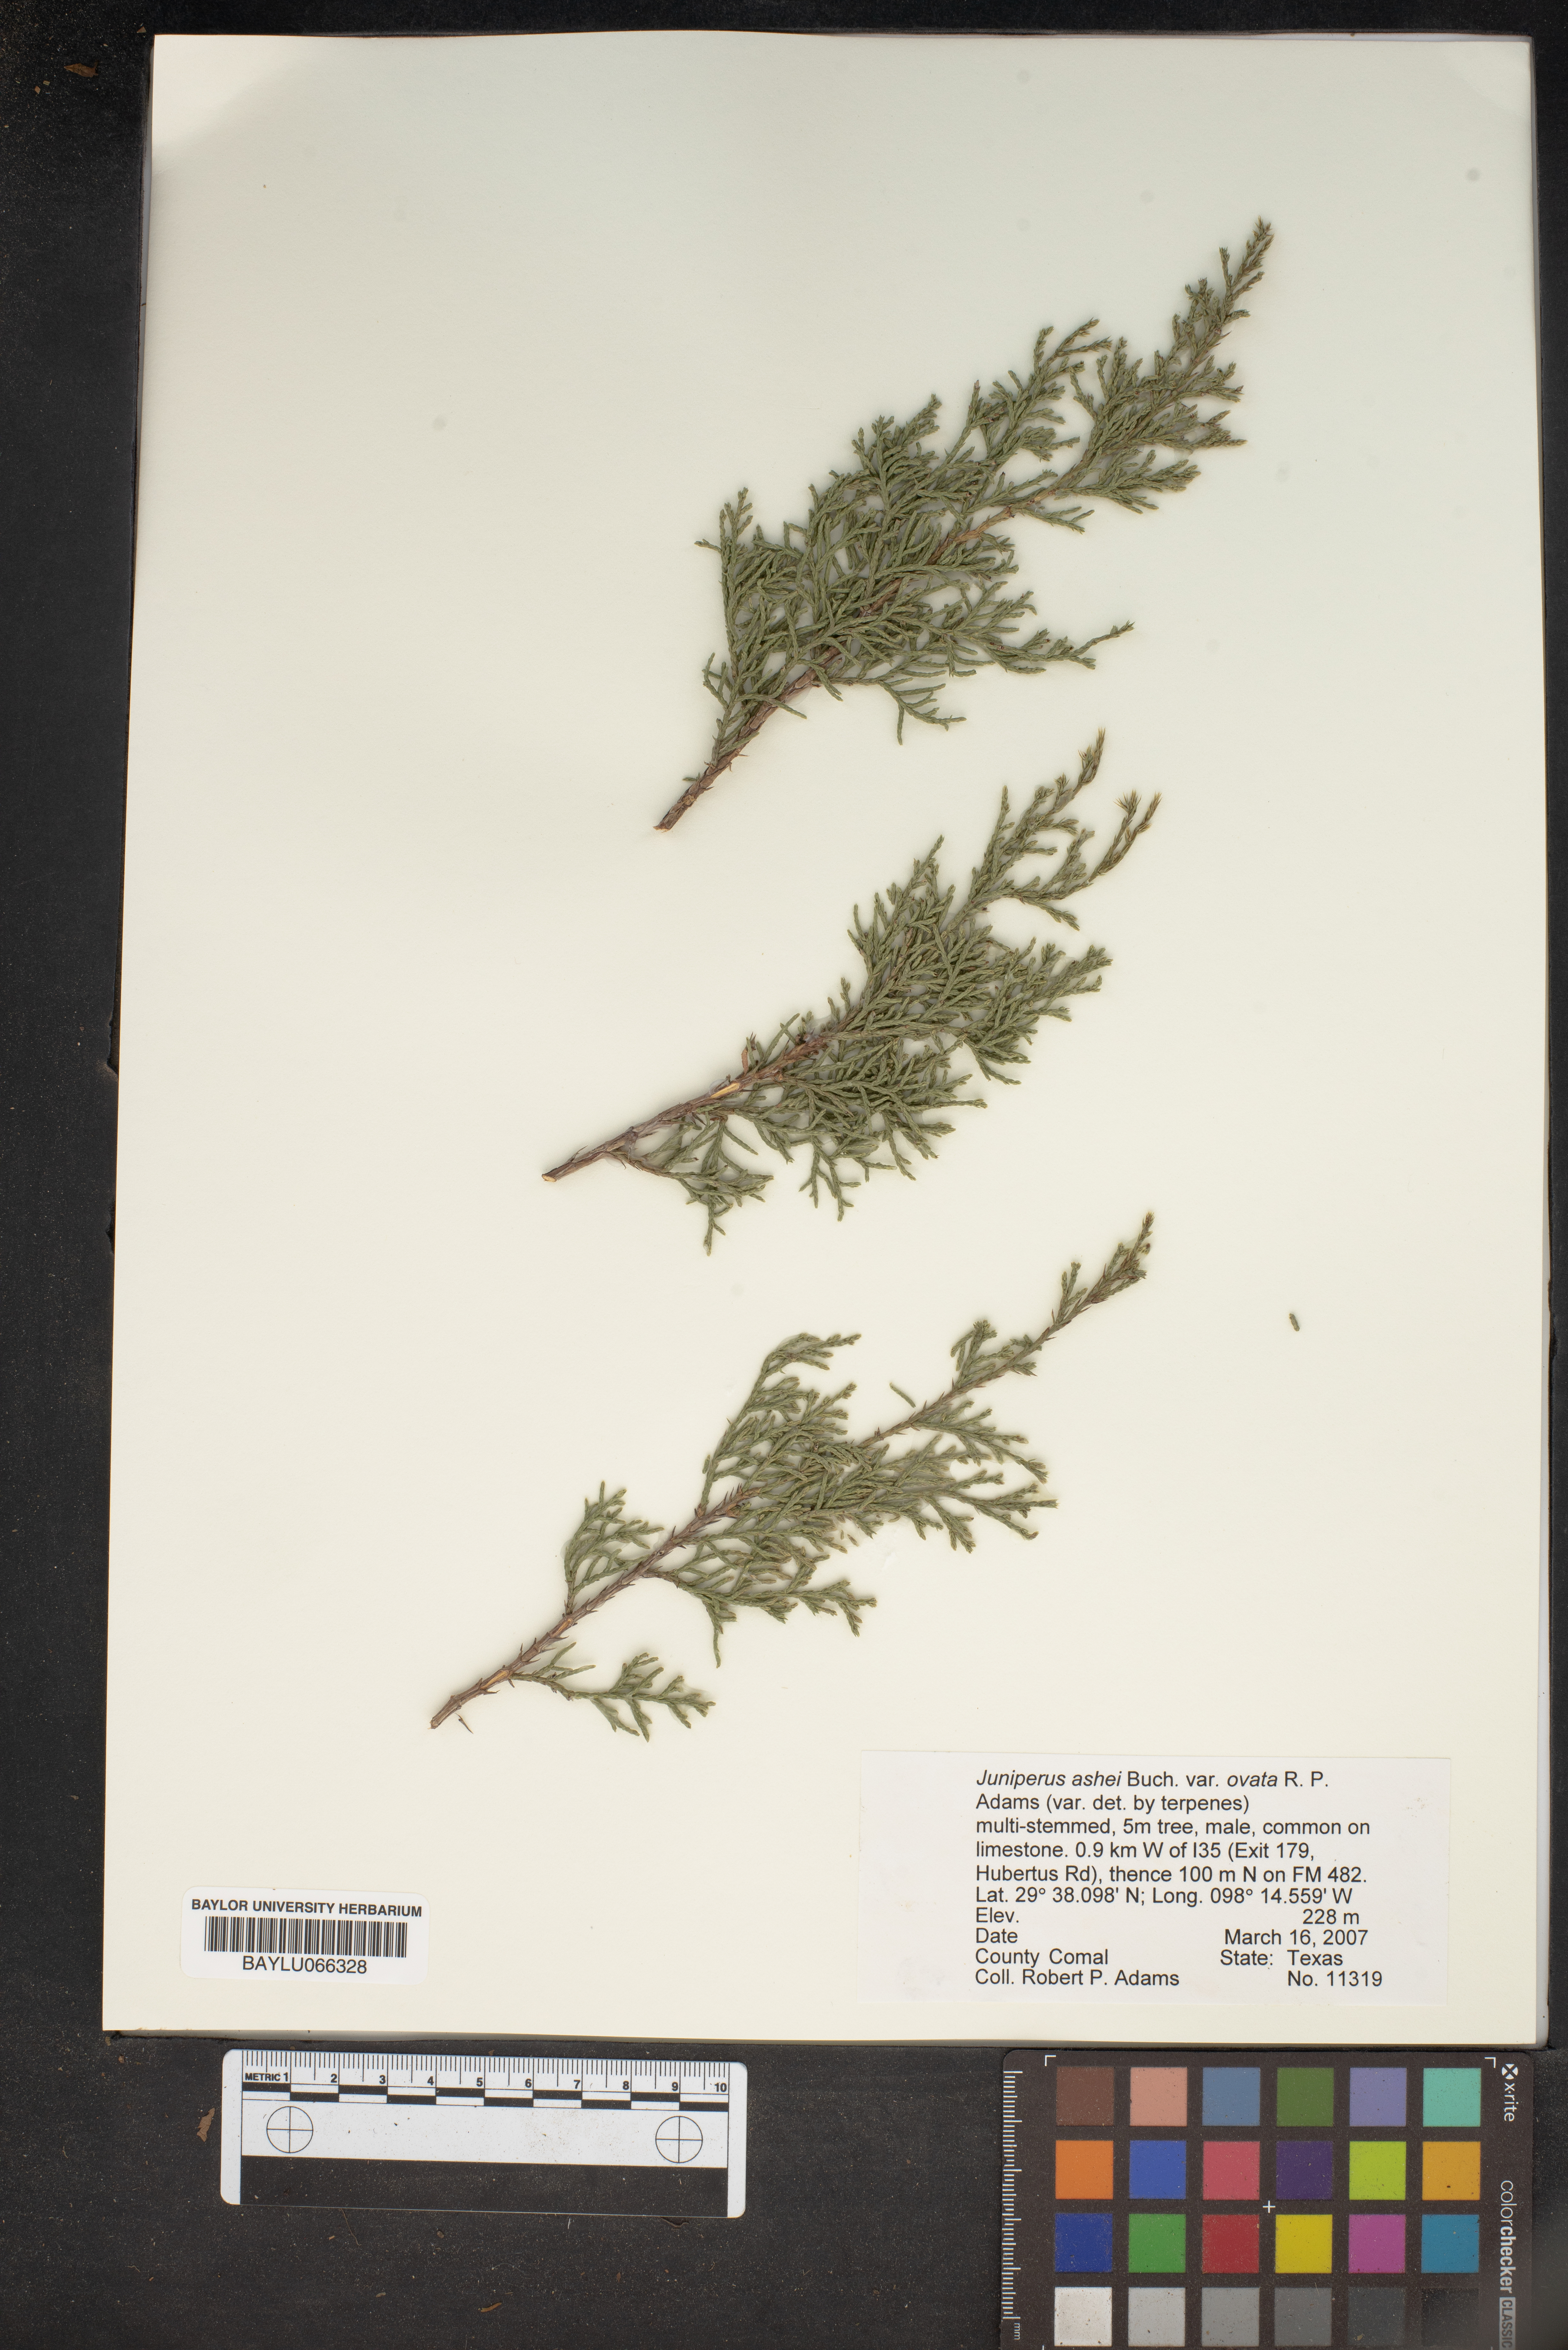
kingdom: Plantae
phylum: Tracheophyta
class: Pinopsida
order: Pinales
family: Cupressaceae
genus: Juniperus
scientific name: Juniperus ashei
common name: Mexican juniper
